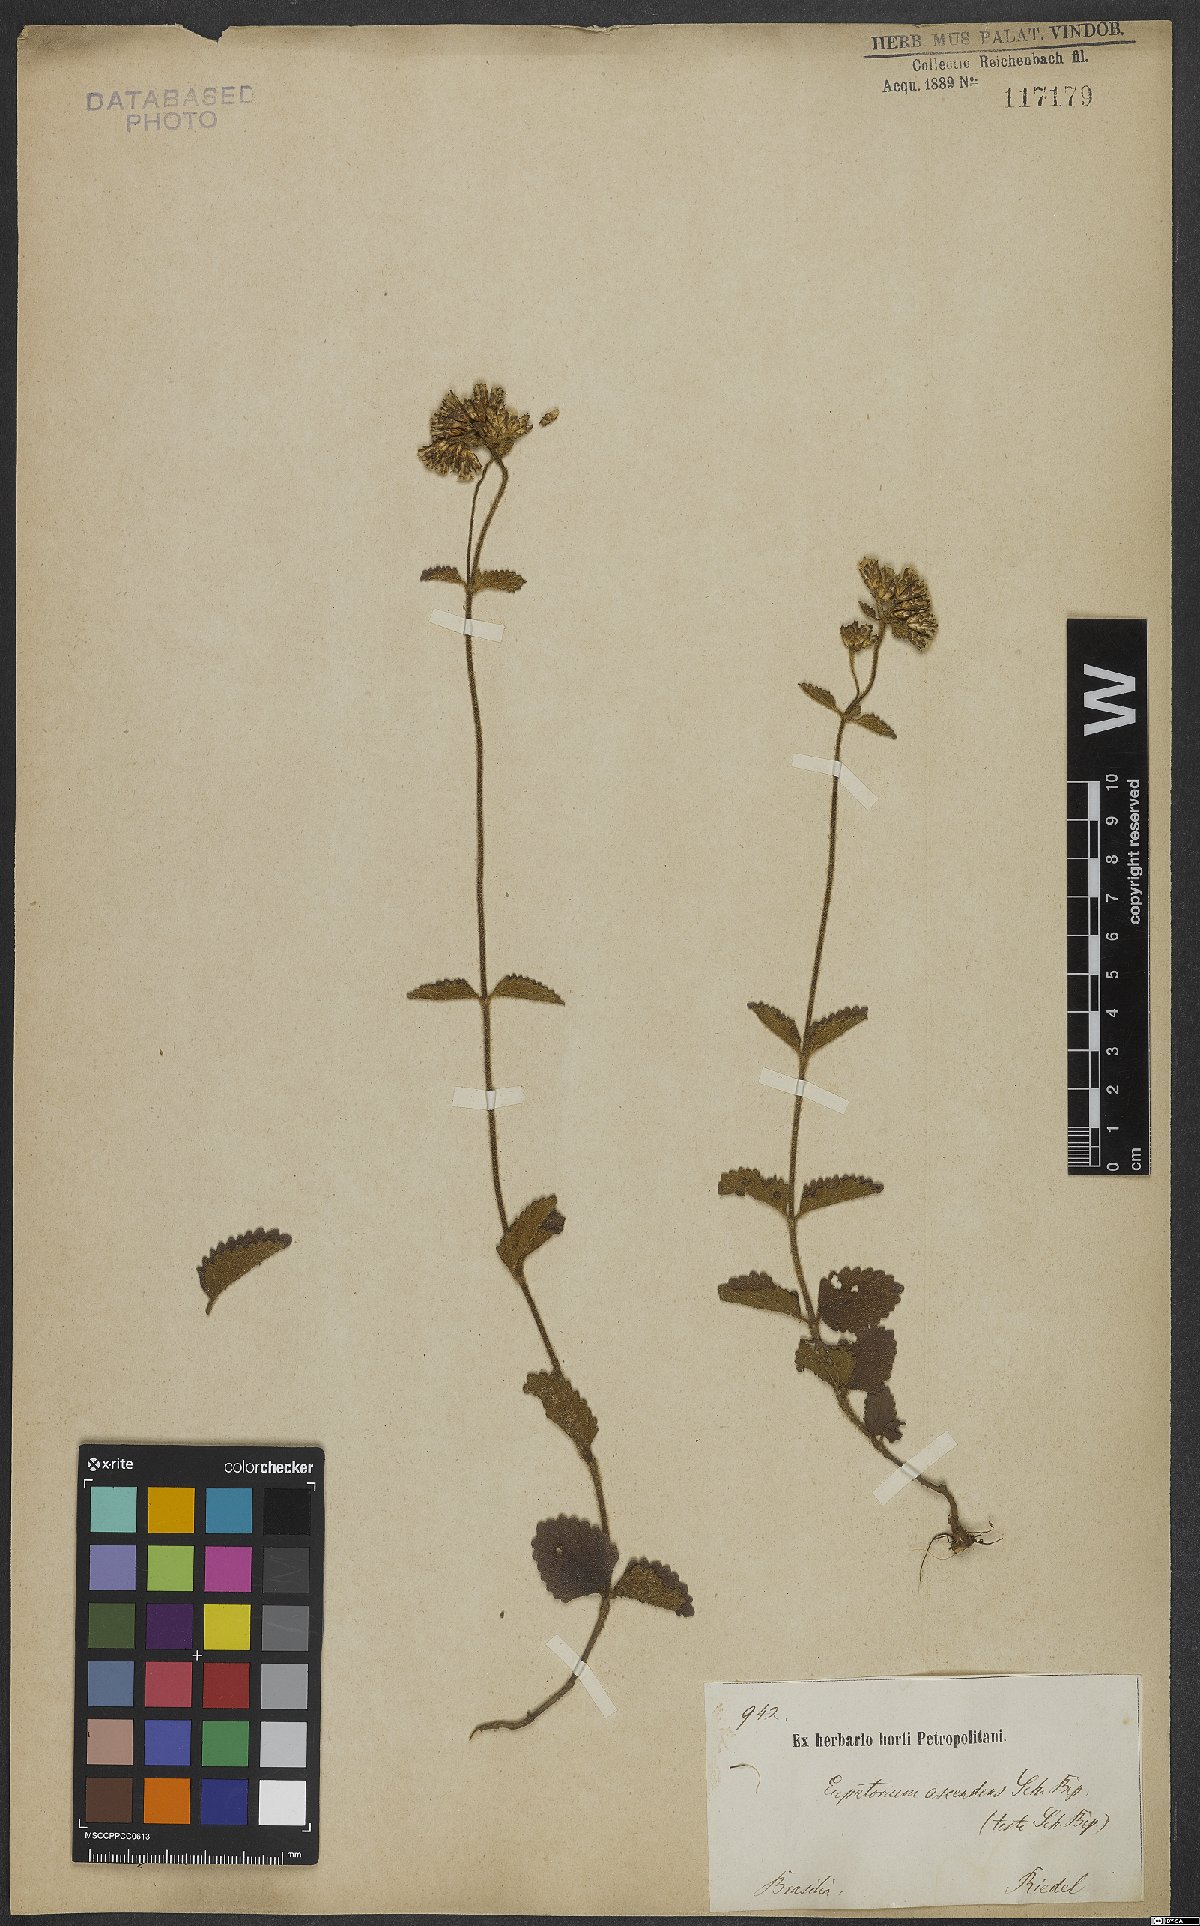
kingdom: Plantae
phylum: Tracheophyta
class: Magnoliopsida
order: Asterales
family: Asteraceae
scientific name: Asteraceae
